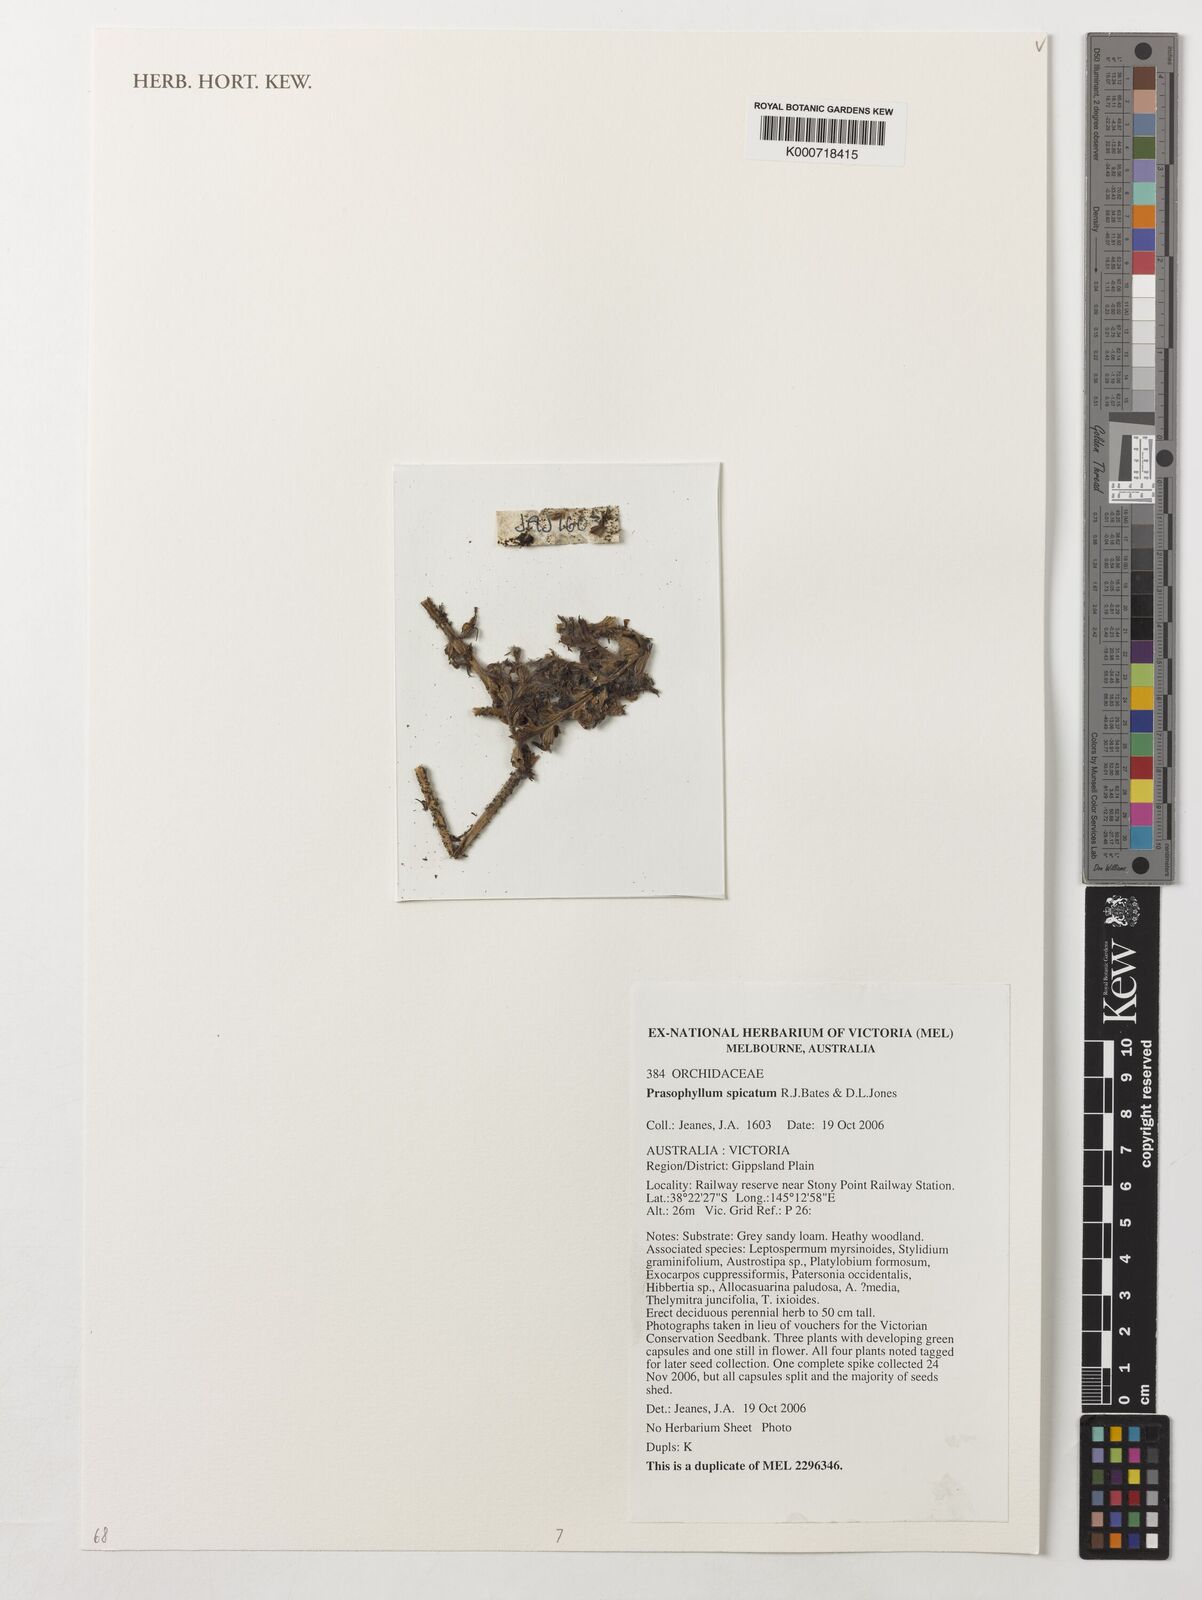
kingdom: Plantae
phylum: Tracheophyta
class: Liliopsida
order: Asparagales
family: Orchidaceae
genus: Prasophyllum
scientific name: Prasophyllum spicatum
